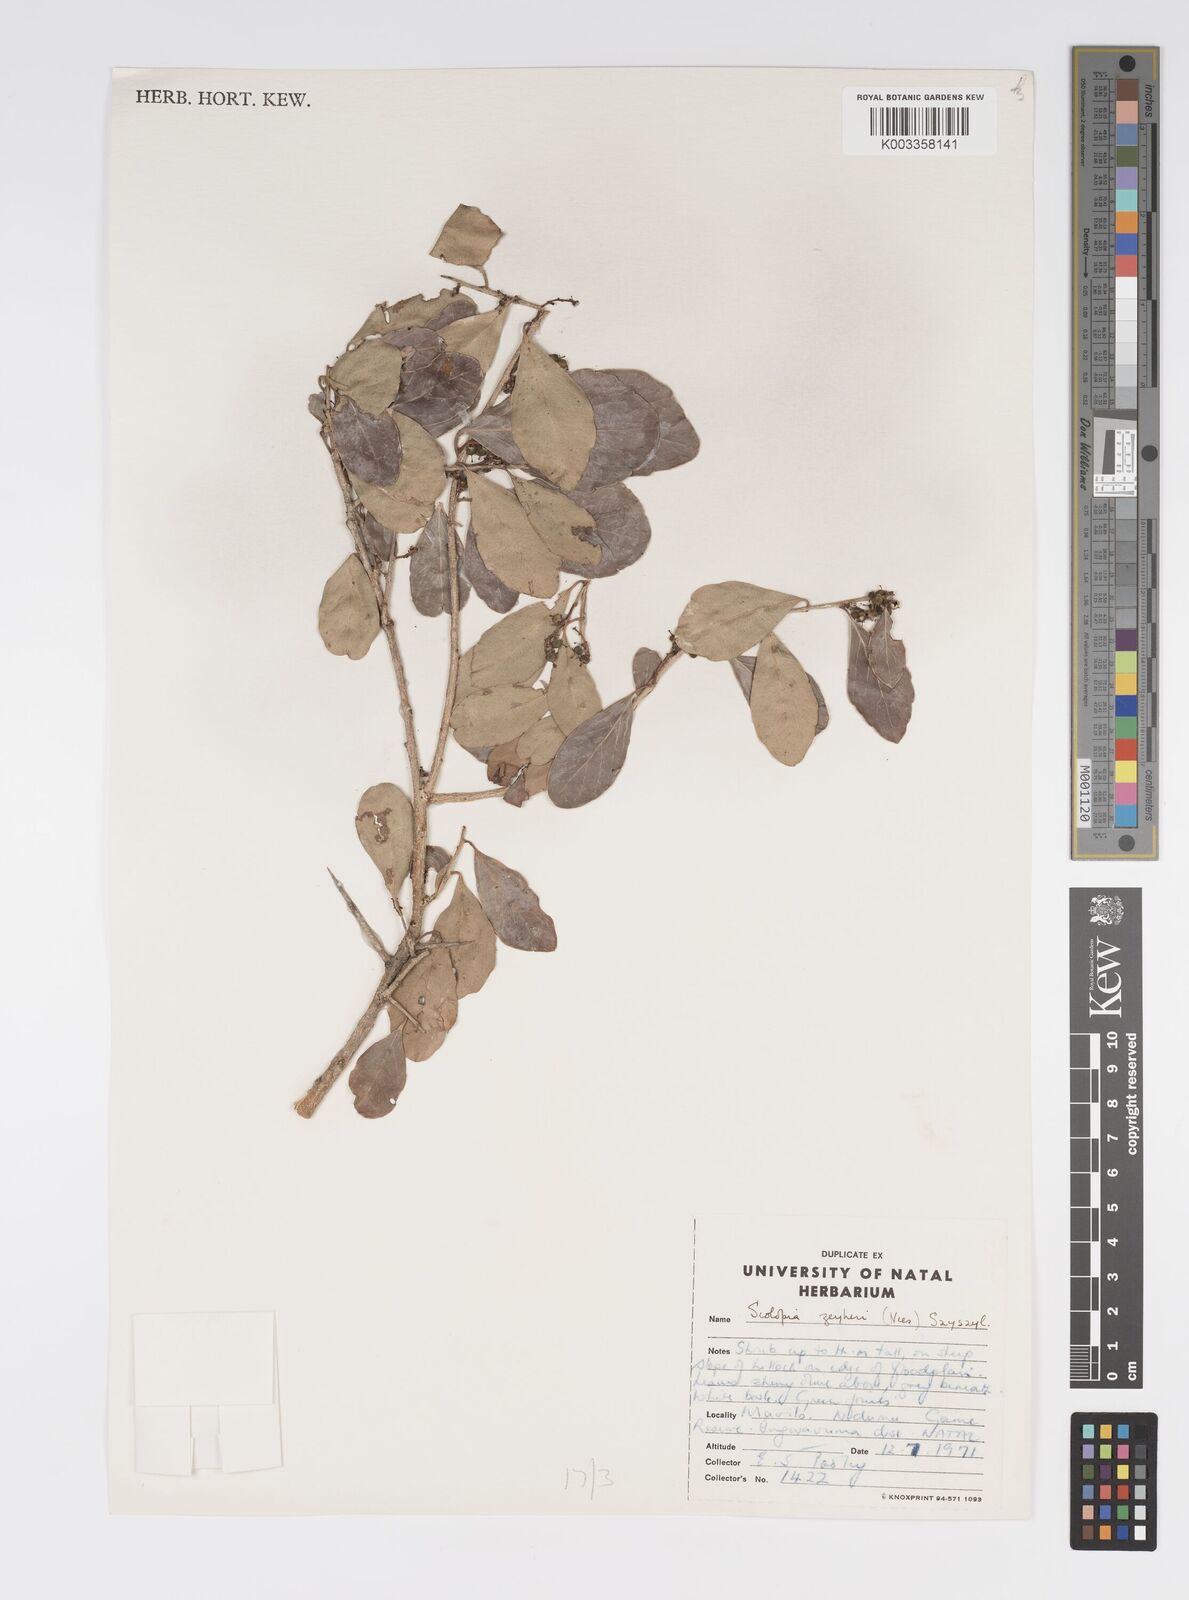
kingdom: Plantae
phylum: Tracheophyta
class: Magnoliopsida
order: Malpighiales
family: Salicaceae
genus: Scolopia
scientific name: Scolopia zeyheri
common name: Thorn pear
